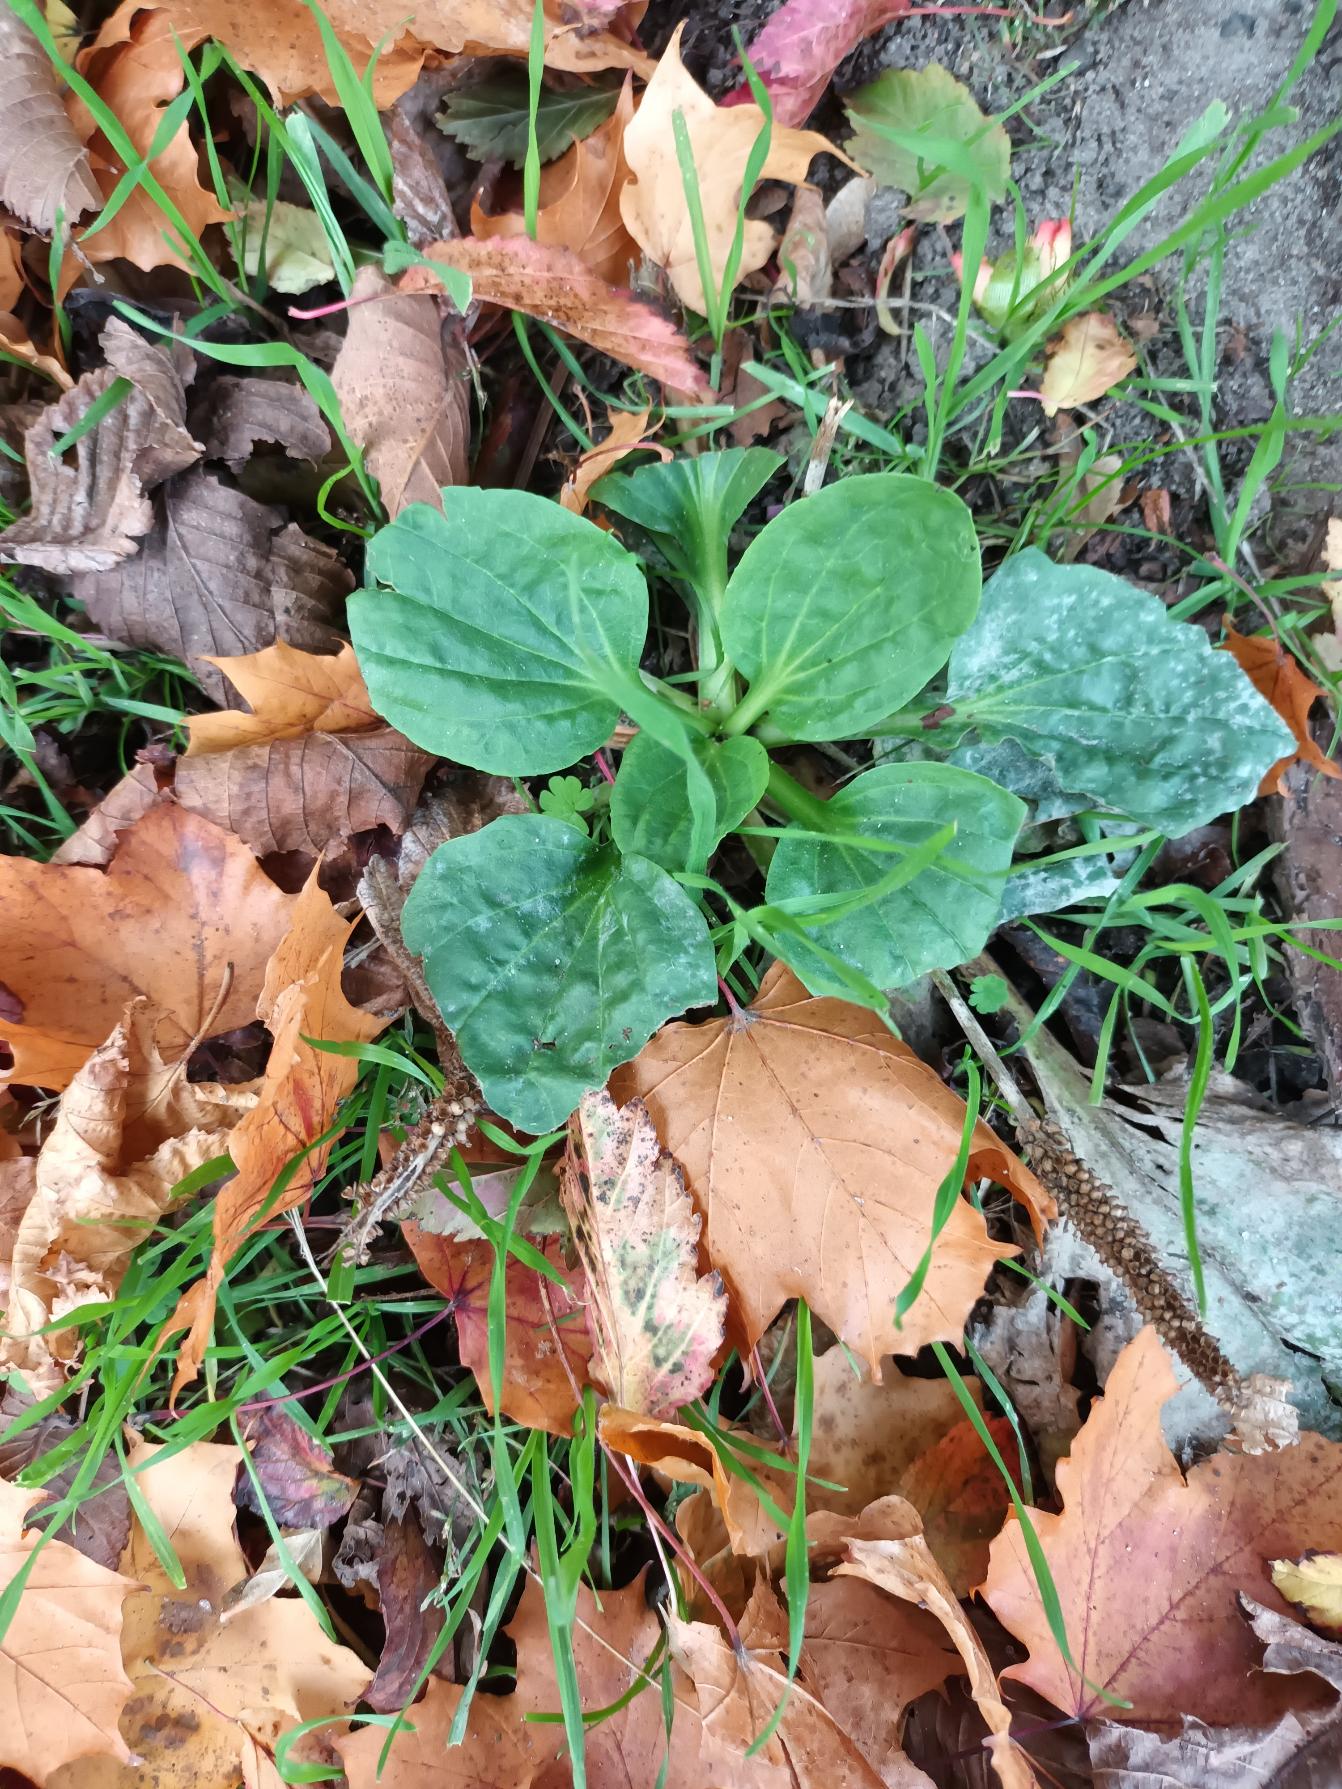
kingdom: Plantae
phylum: Tracheophyta
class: Magnoliopsida
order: Lamiales
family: Plantaginaceae
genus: Plantago
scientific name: Plantago major
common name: Glat vejbred
